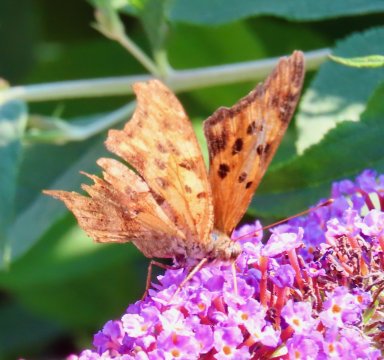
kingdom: Animalia
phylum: Arthropoda
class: Insecta
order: Lepidoptera
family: Nymphalidae
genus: Polygonia
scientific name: Polygonia interrogationis
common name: Question Mark
